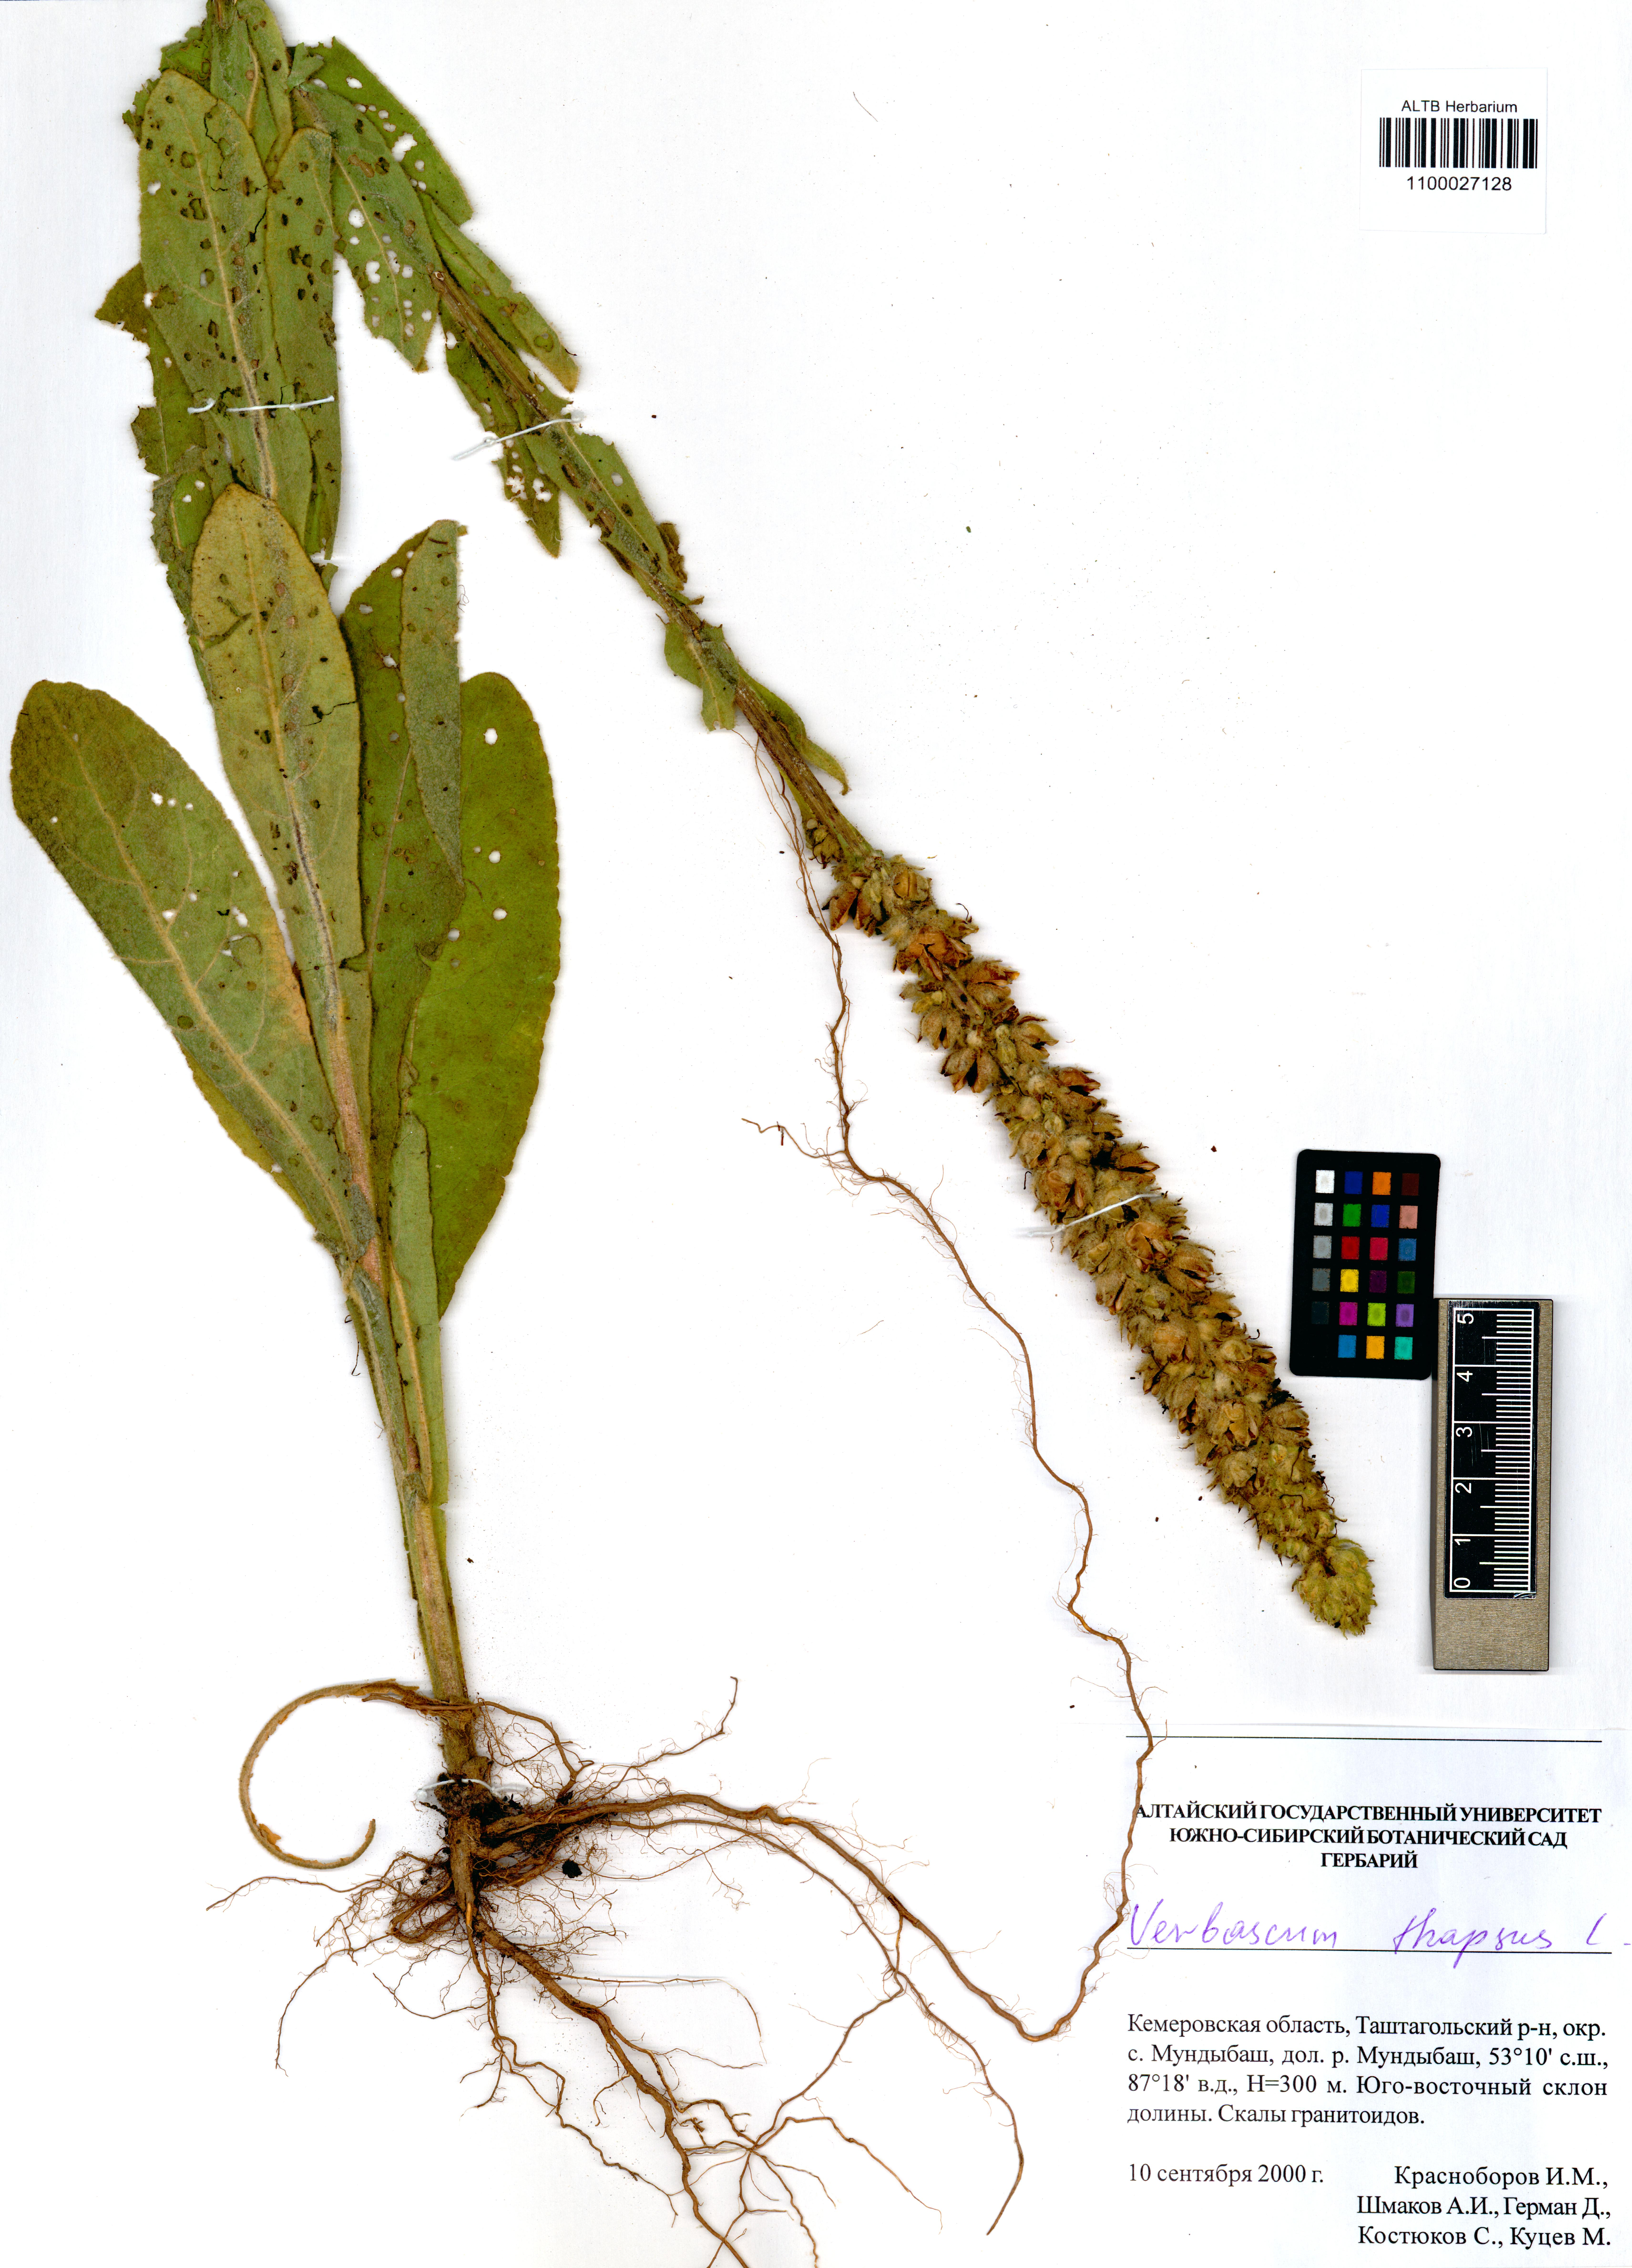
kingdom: Plantae
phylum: Tracheophyta
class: Magnoliopsida
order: Lamiales
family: Scrophulariaceae
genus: Verbascum
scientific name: Verbascum thapsus
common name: Common mullein
